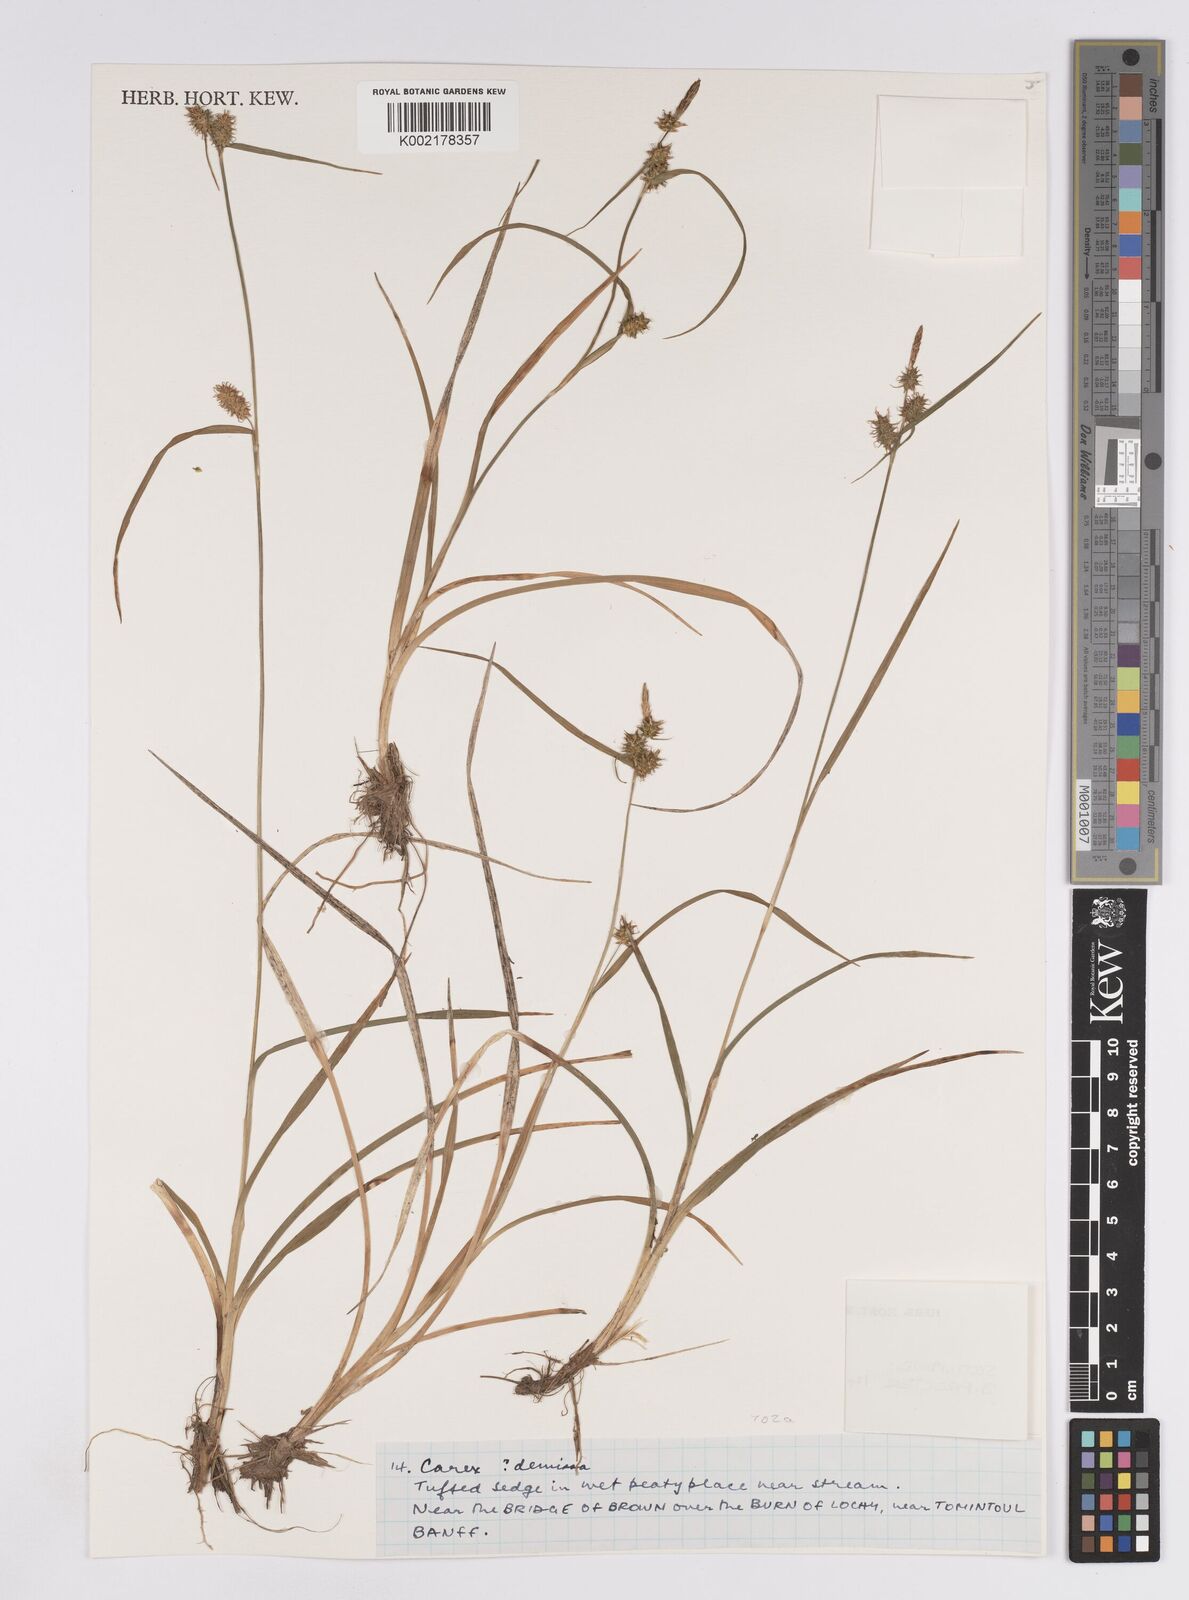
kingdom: Plantae
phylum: Tracheophyta
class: Liliopsida
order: Poales
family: Cyperaceae
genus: Carex
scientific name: Carex demissa
